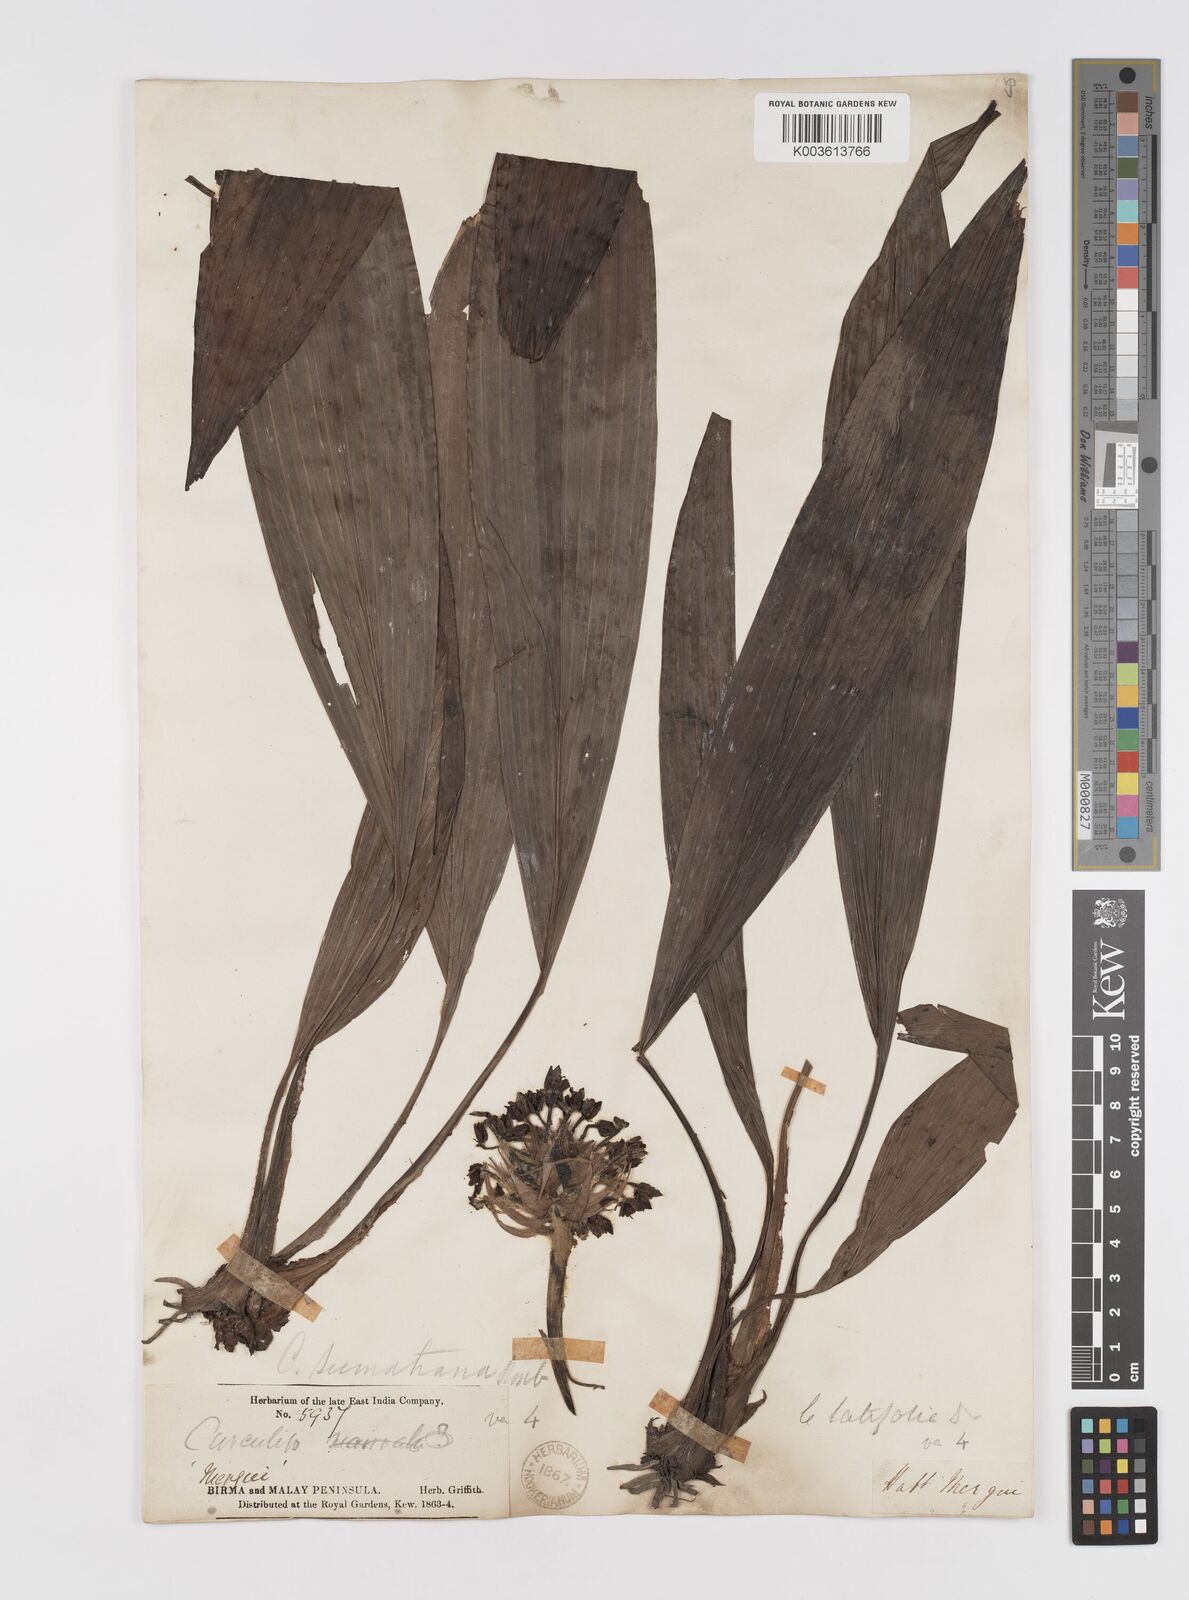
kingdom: Plantae
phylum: Tracheophyta
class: Liliopsida
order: Asparagales
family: Hypoxidaceae
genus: Curculigo
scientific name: Curculigo latifolia
